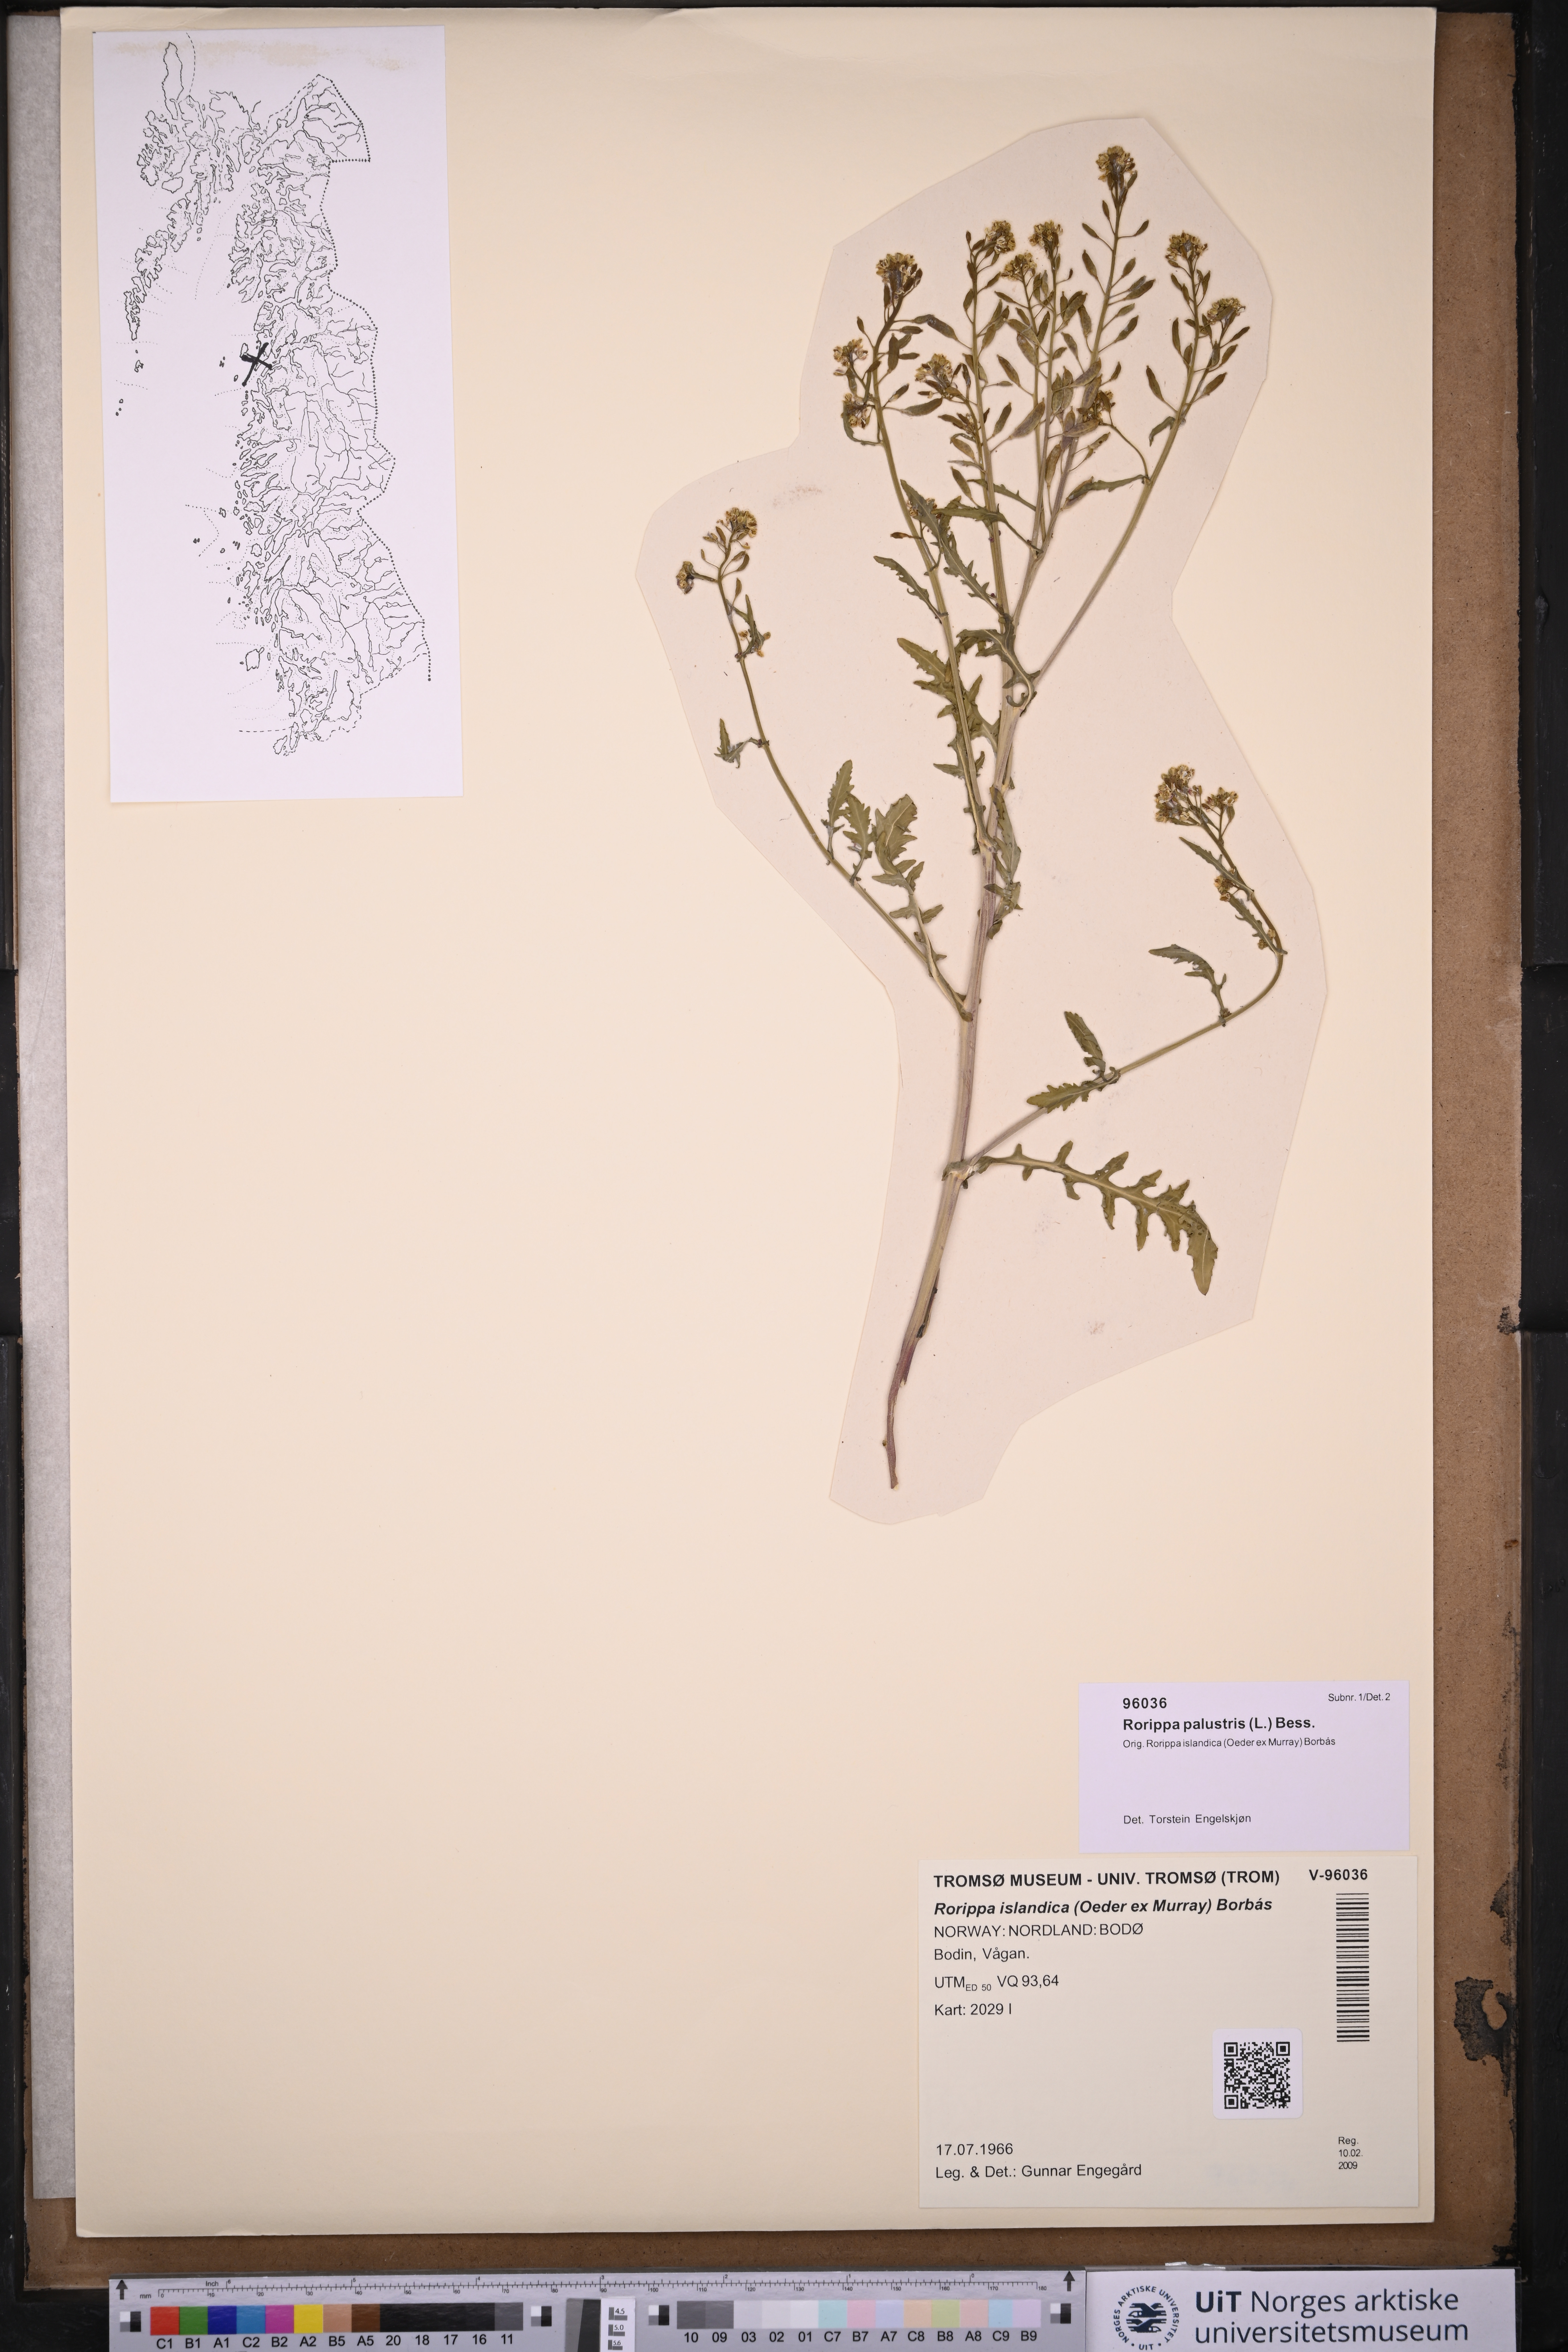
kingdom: Plantae
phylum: Tracheophyta
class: Magnoliopsida
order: Brassicales
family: Brassicaceae
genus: Rorippa
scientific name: Rorippa palustris
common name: Marsh yellow-cress
